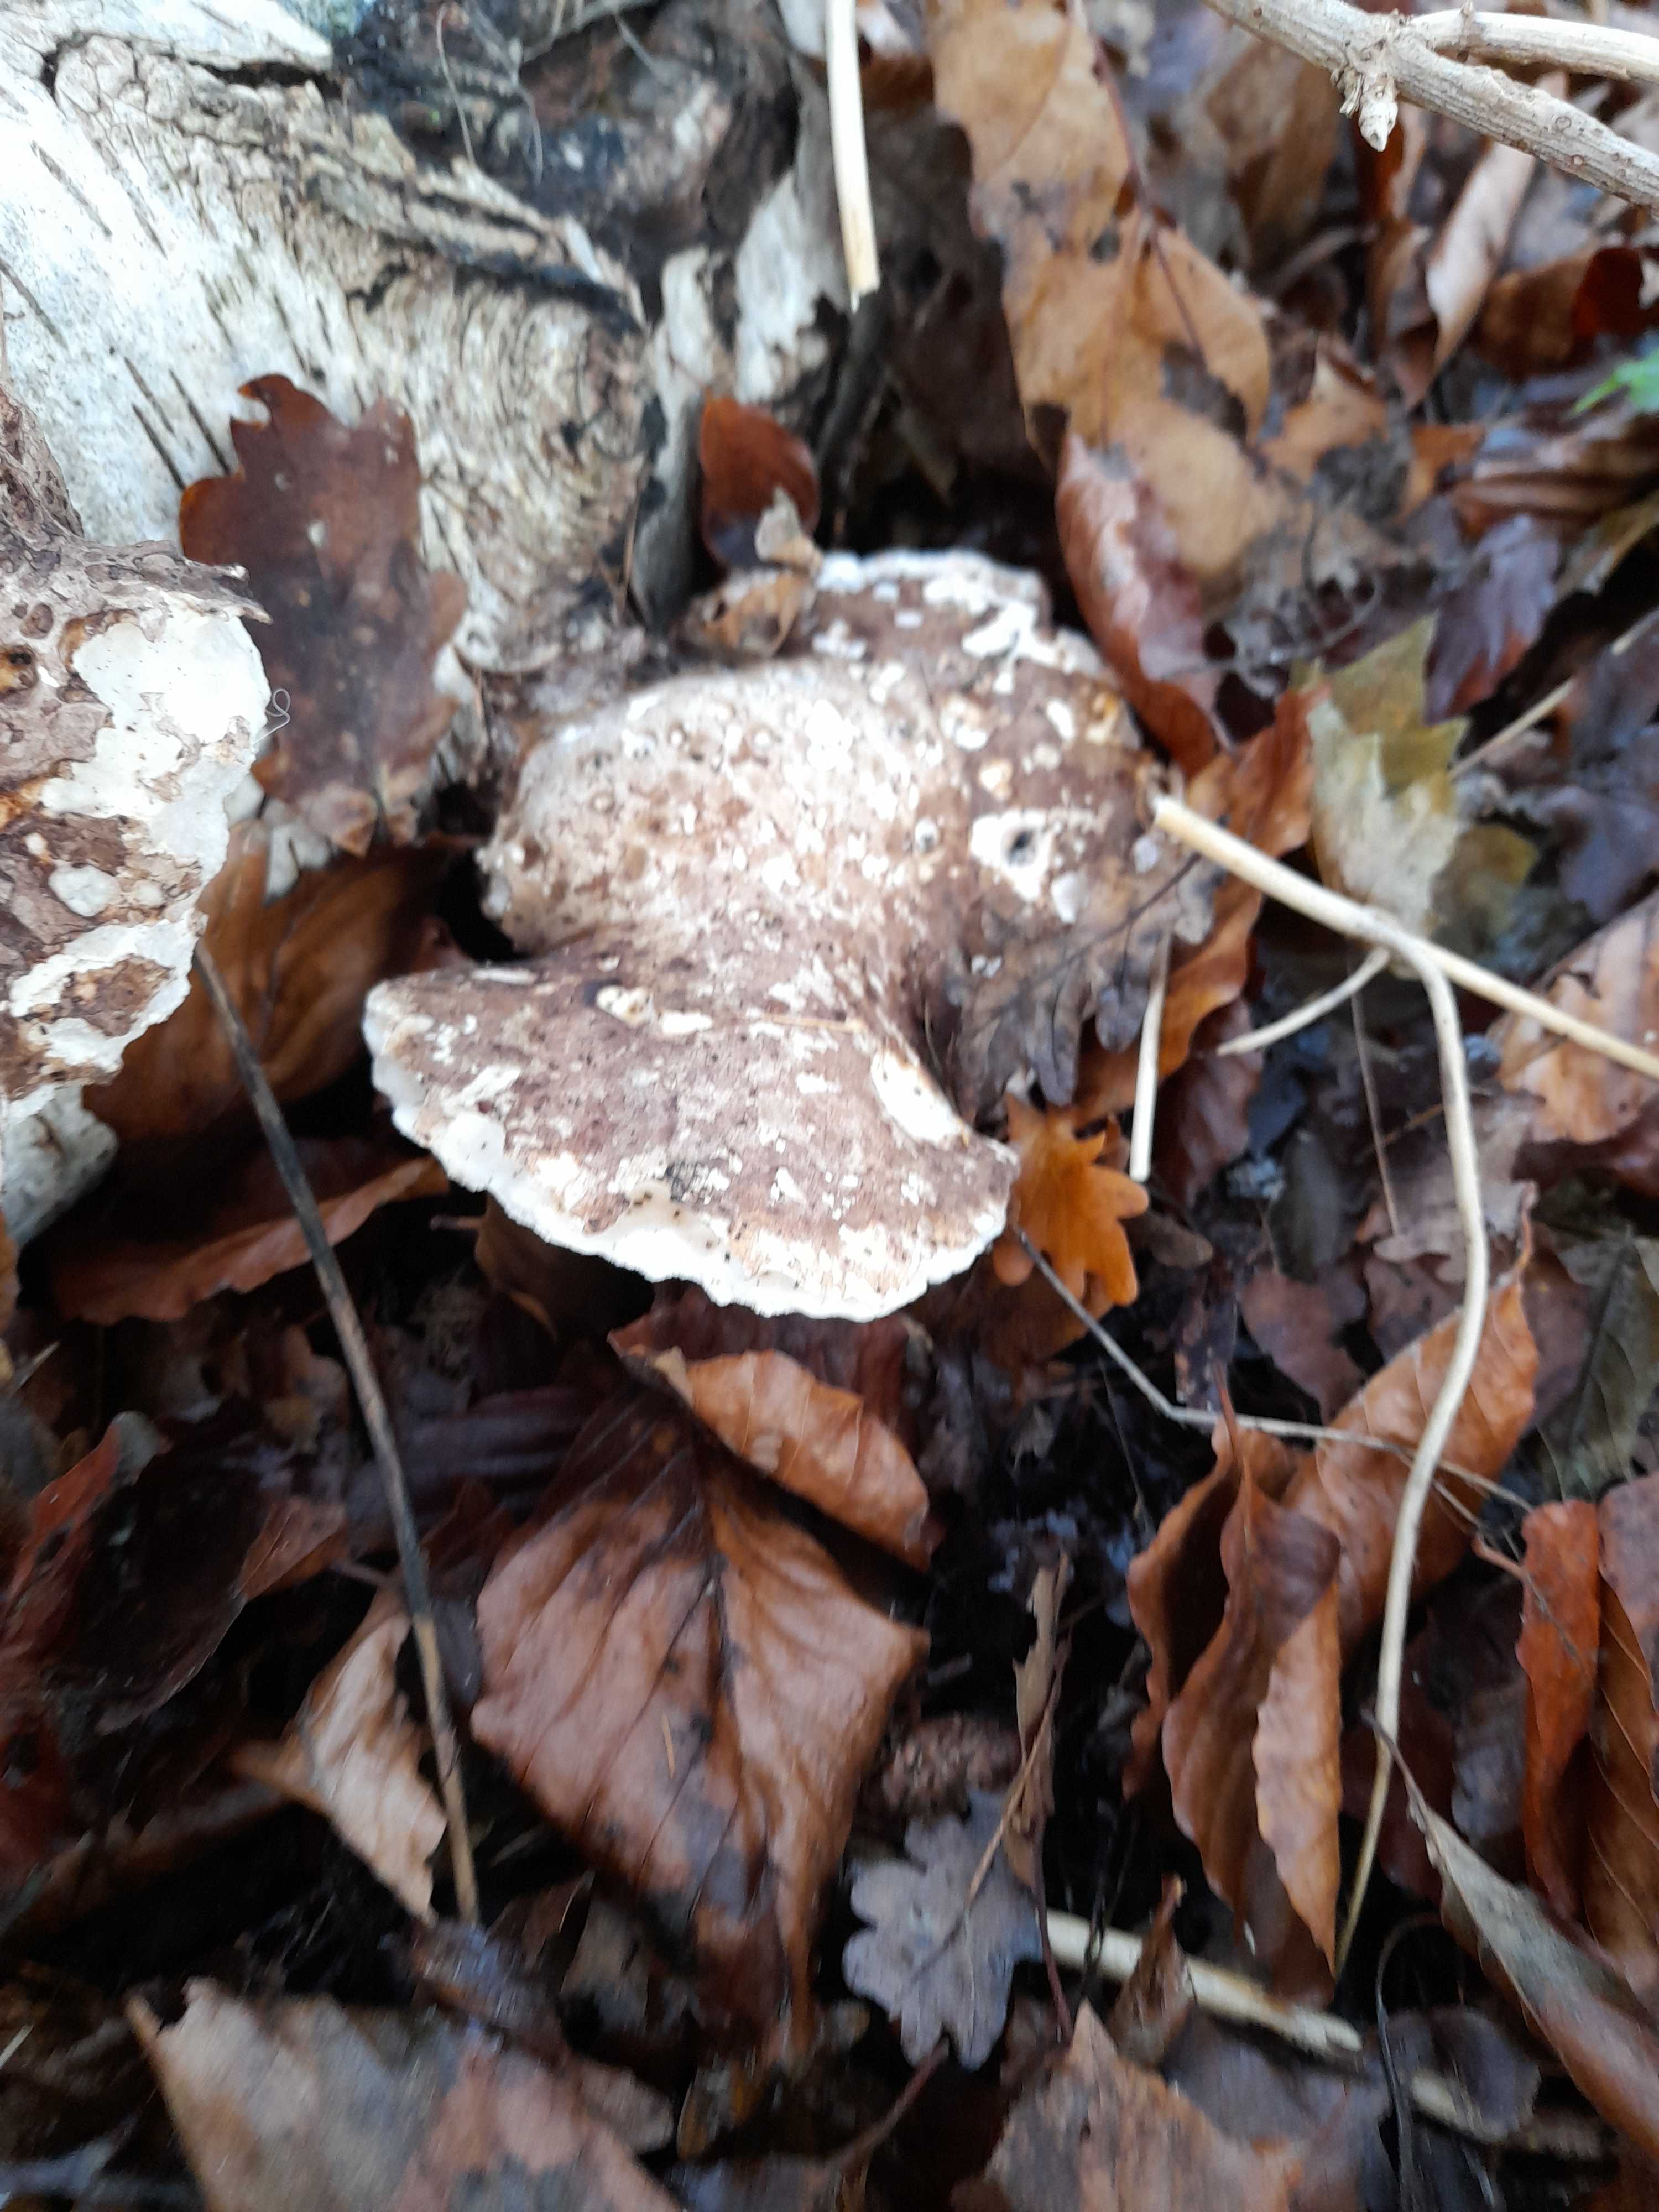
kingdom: Fungi
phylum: Basidiomycota
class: Agaricomycetes
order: Polyporales
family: Fomitopsidaceae
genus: Fomitopsis
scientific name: Fomitopsis betulina
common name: birkeporesvamp
